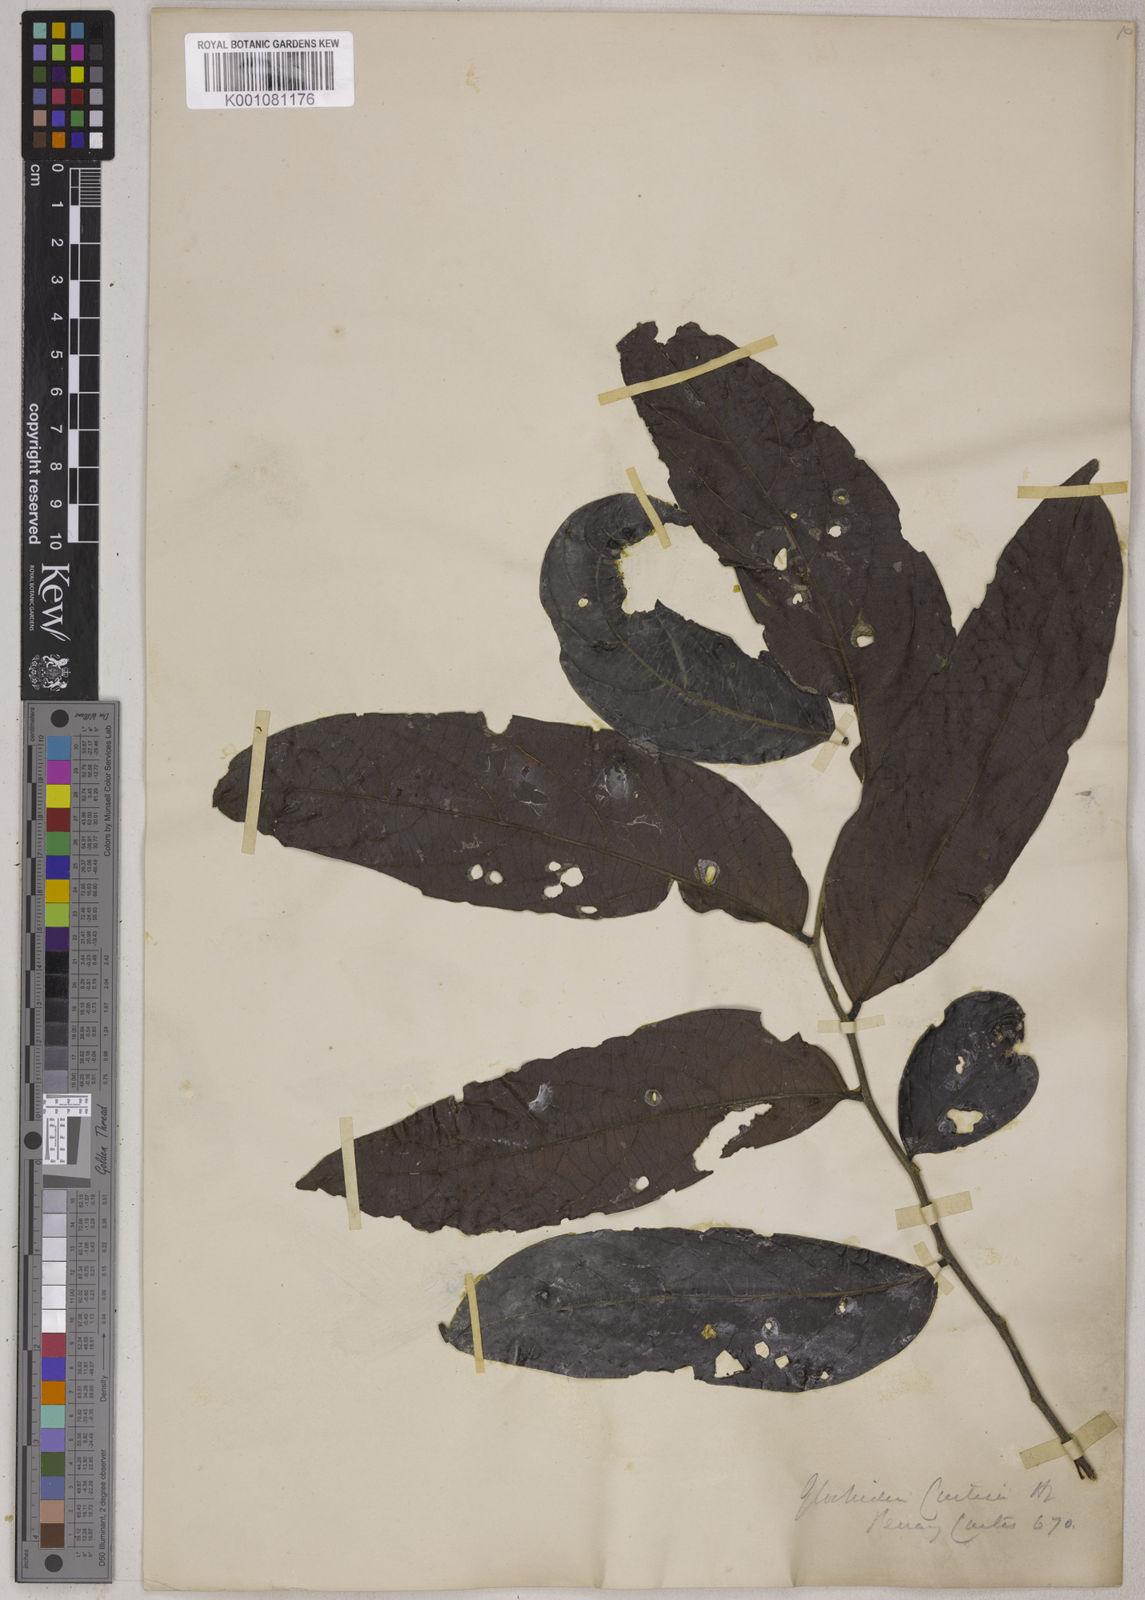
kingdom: Plantae
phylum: Tracheophyta
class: Magnoliopsida
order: Malpighiales
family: Phyllanthaceae
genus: Glochidion
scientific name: Glochidion glomerulatum
